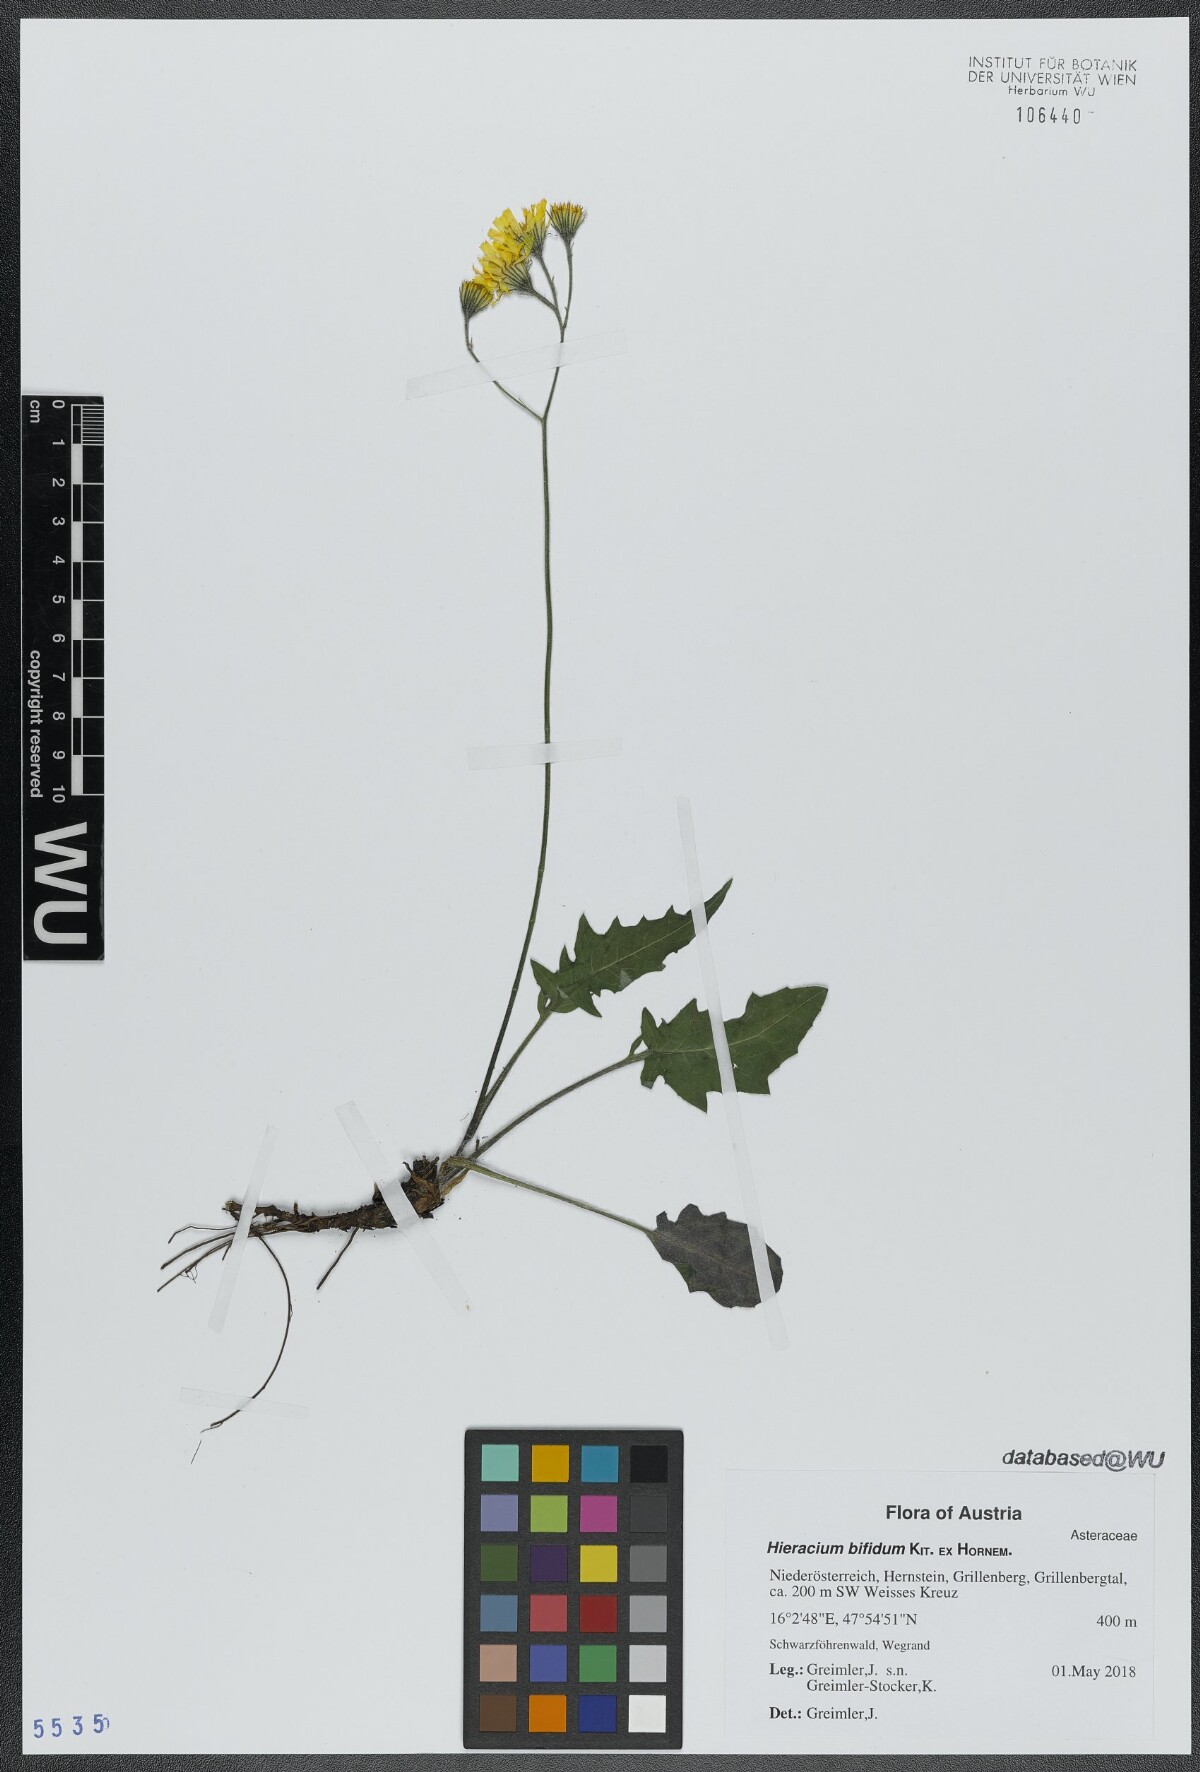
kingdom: Plantae
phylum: Tracheophyta
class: Magnoliopsida
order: Asterales
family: Asteraceae
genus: Hieracium
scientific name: Hieracium bifidum
